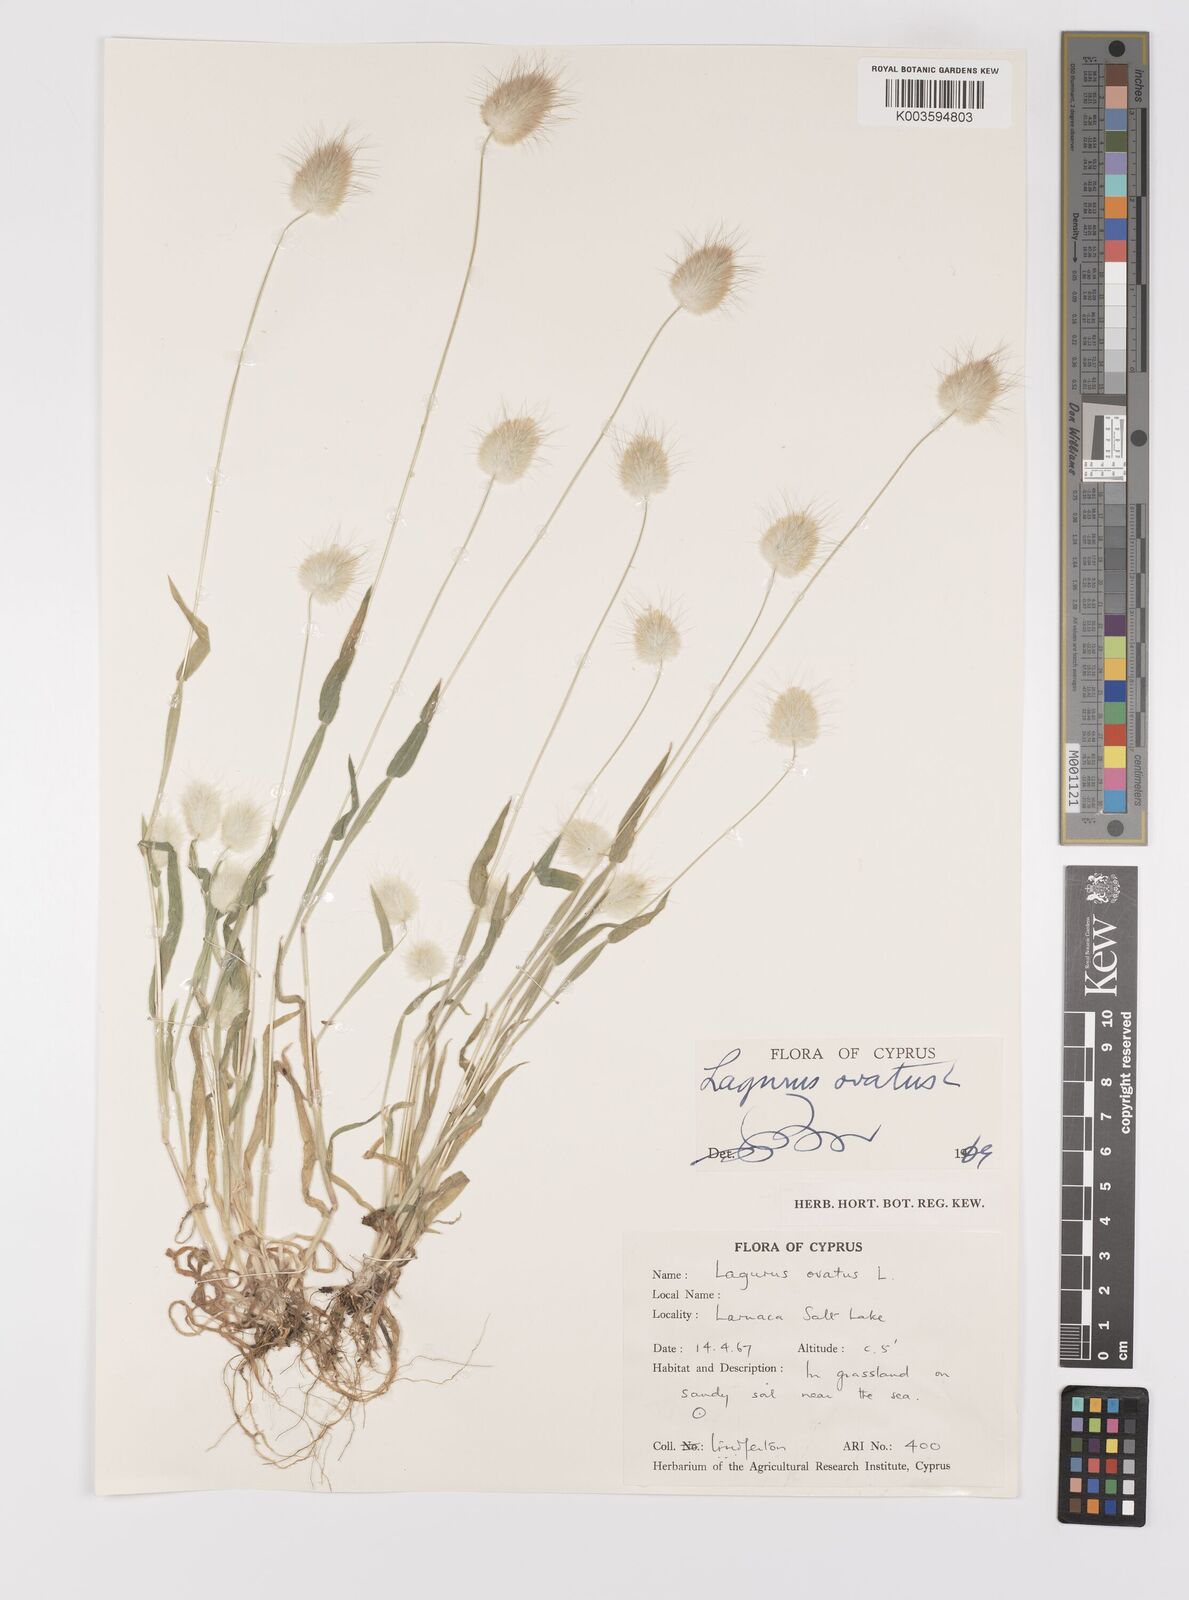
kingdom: Plantae
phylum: Tracheophyta
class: Liliopsida
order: Poales
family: Poaceae
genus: Lagurus
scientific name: Lagurus ovatus
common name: Hare's-tail
